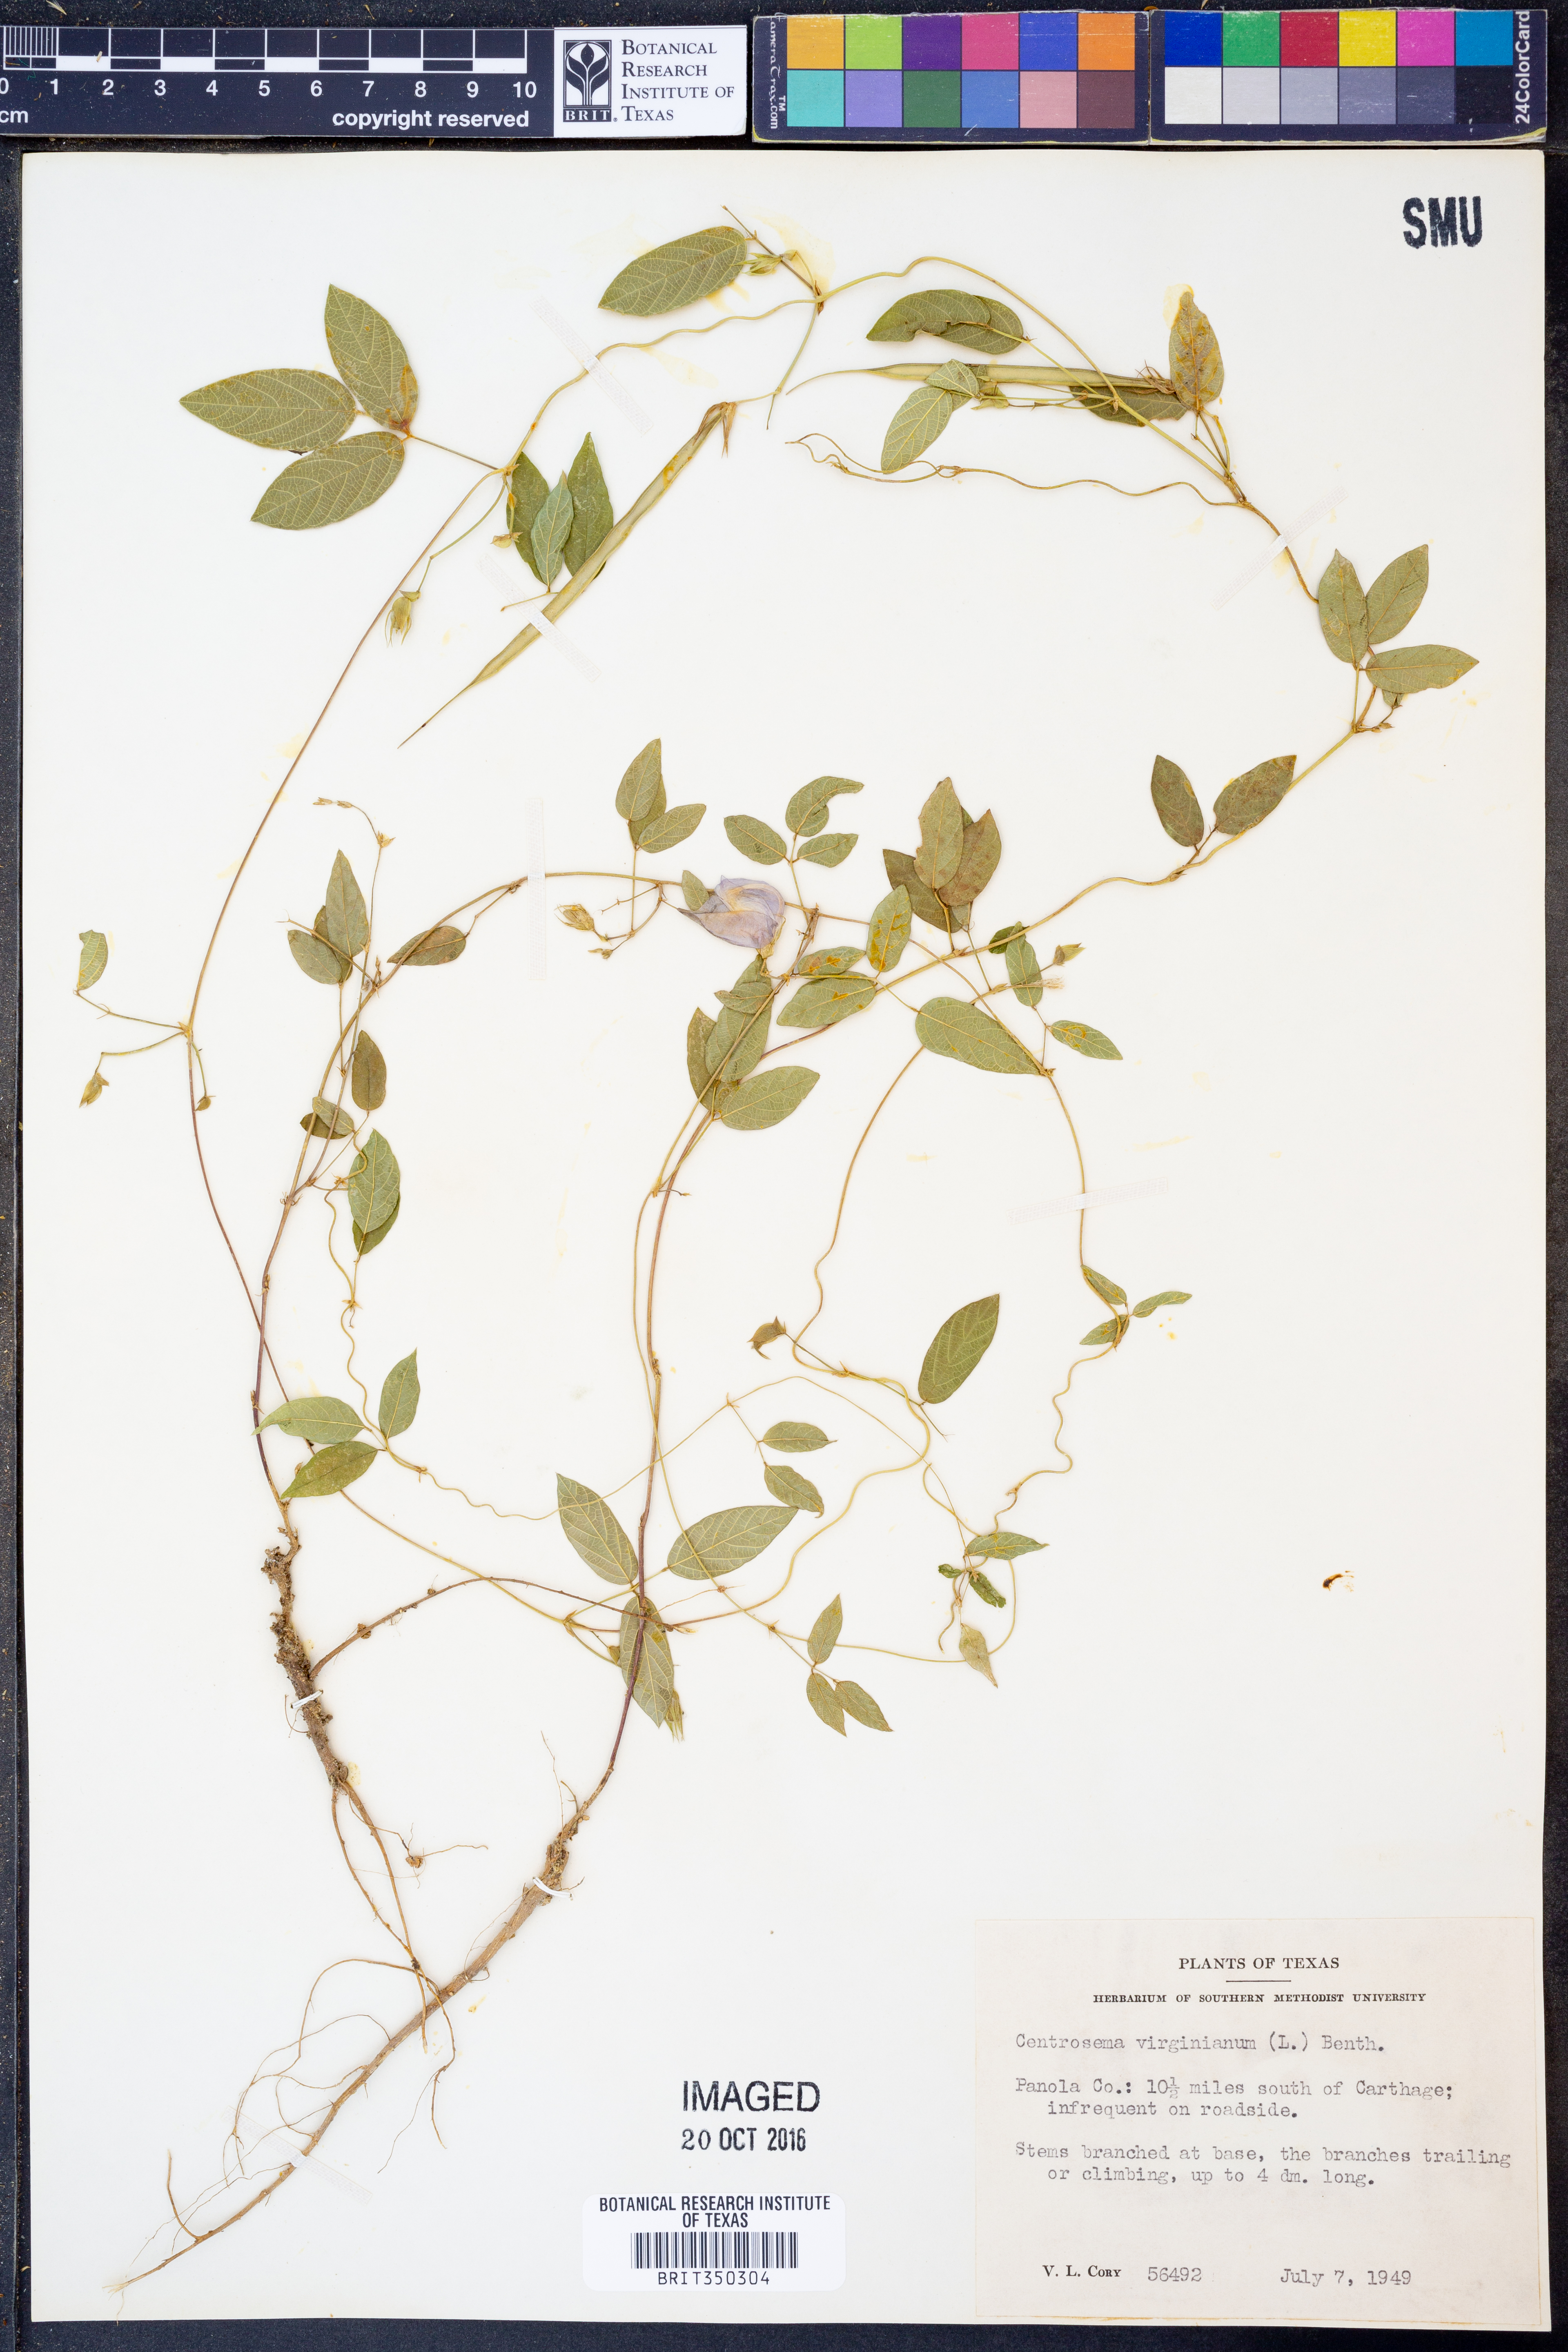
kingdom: Plantae
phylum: Tracheophyta
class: Magnoliopsida
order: Fabales
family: Fabaceae
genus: Centrosema
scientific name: Centrosema virginianum
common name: Butterfly-pea
